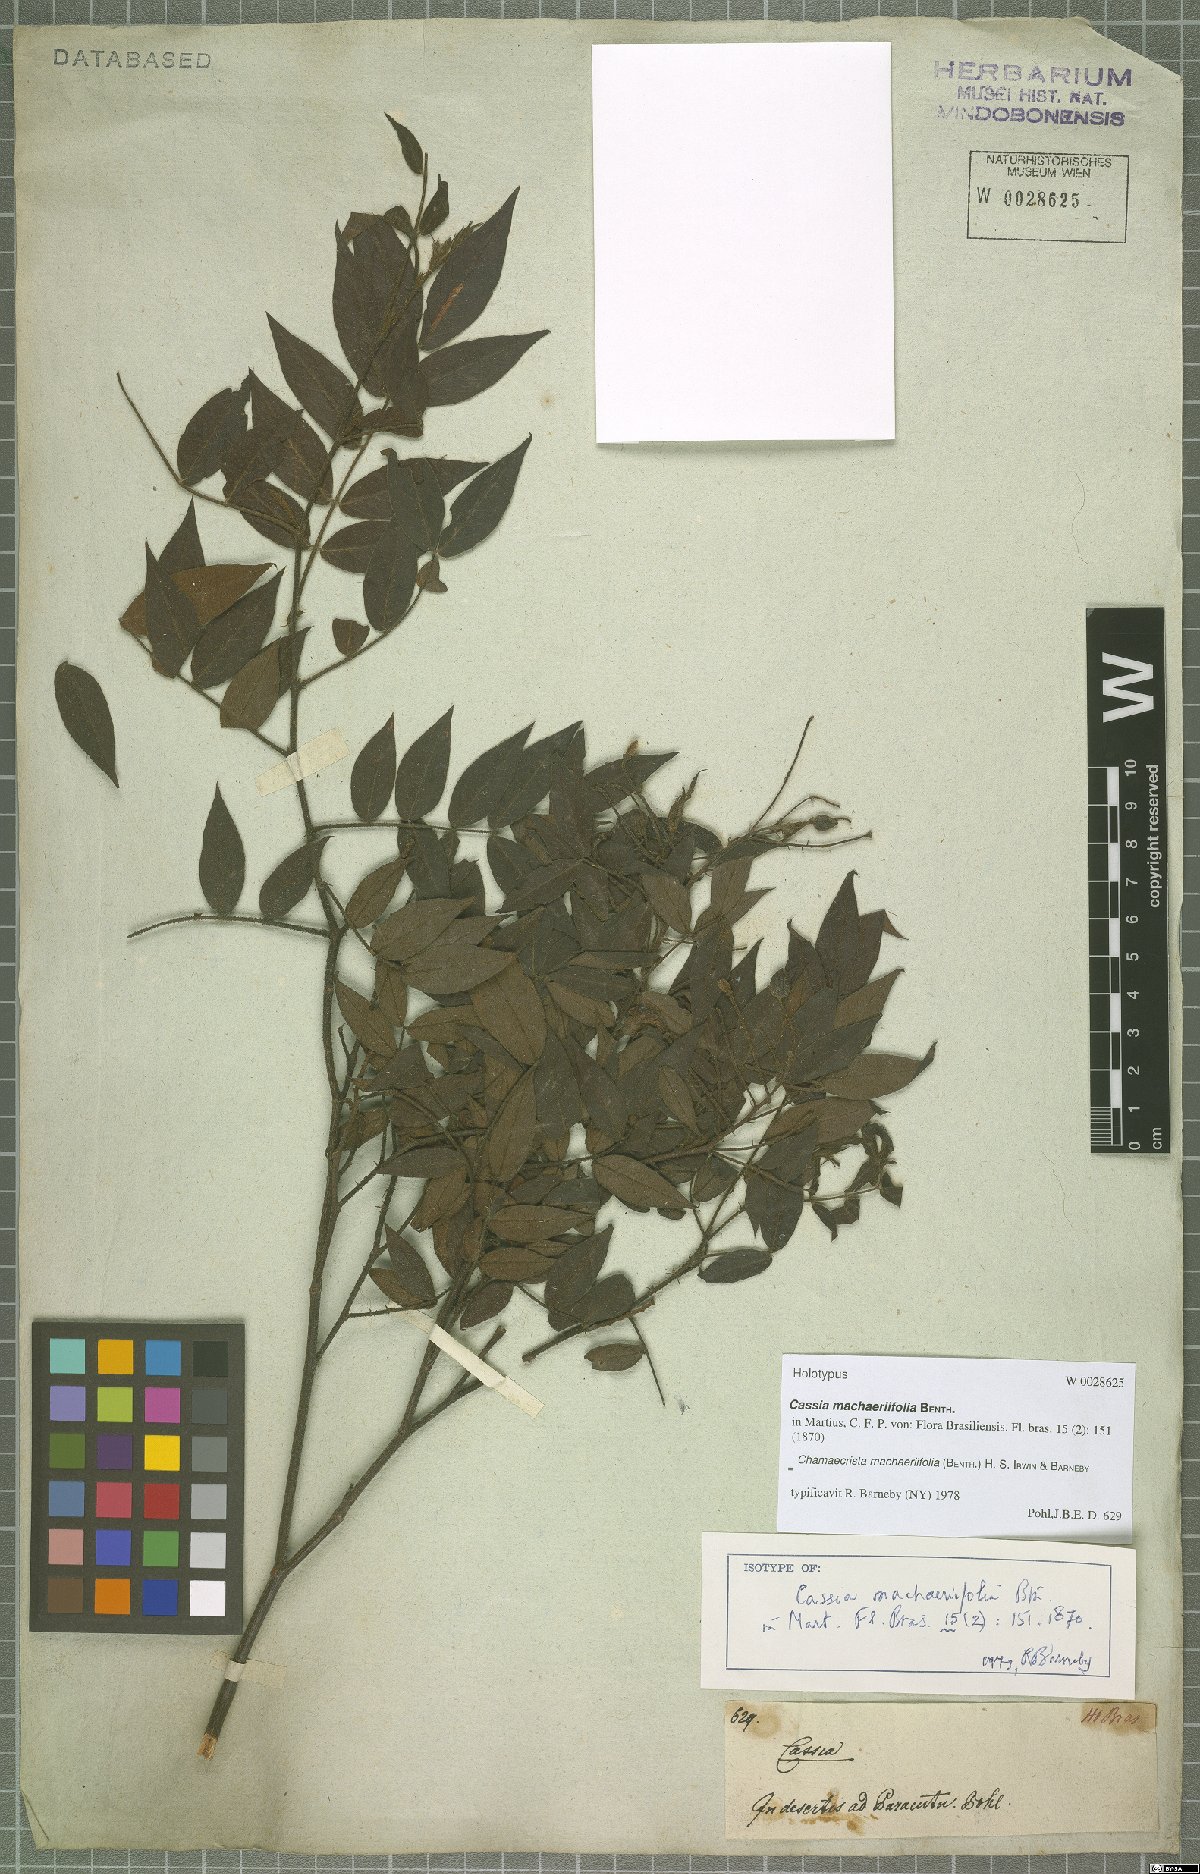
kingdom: Plantae
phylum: Tracheophyta
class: Magnoliopsida
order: Fabales
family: Fabaceae
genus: Chamaecrista
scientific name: Chamaecrista machaeriifolia
